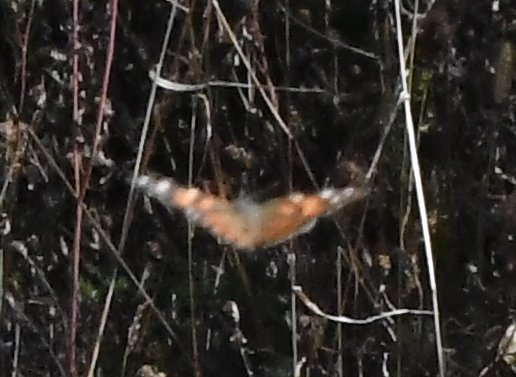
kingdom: Animalia
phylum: Arthropoda
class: Insecta
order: Lepidoptera
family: Nymphalidae
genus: Vanessa
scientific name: Vanessa cardui
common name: Painted Lady
